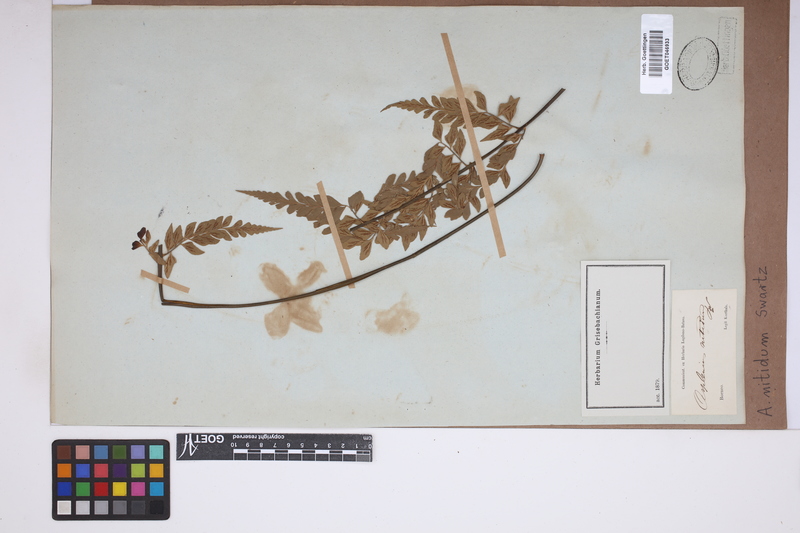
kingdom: Plantae
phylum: Tracheophyta
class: Polypodiopsida
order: Polypodiales
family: Aspleniaceae
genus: Asplenium
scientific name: Asplenium nitidum
